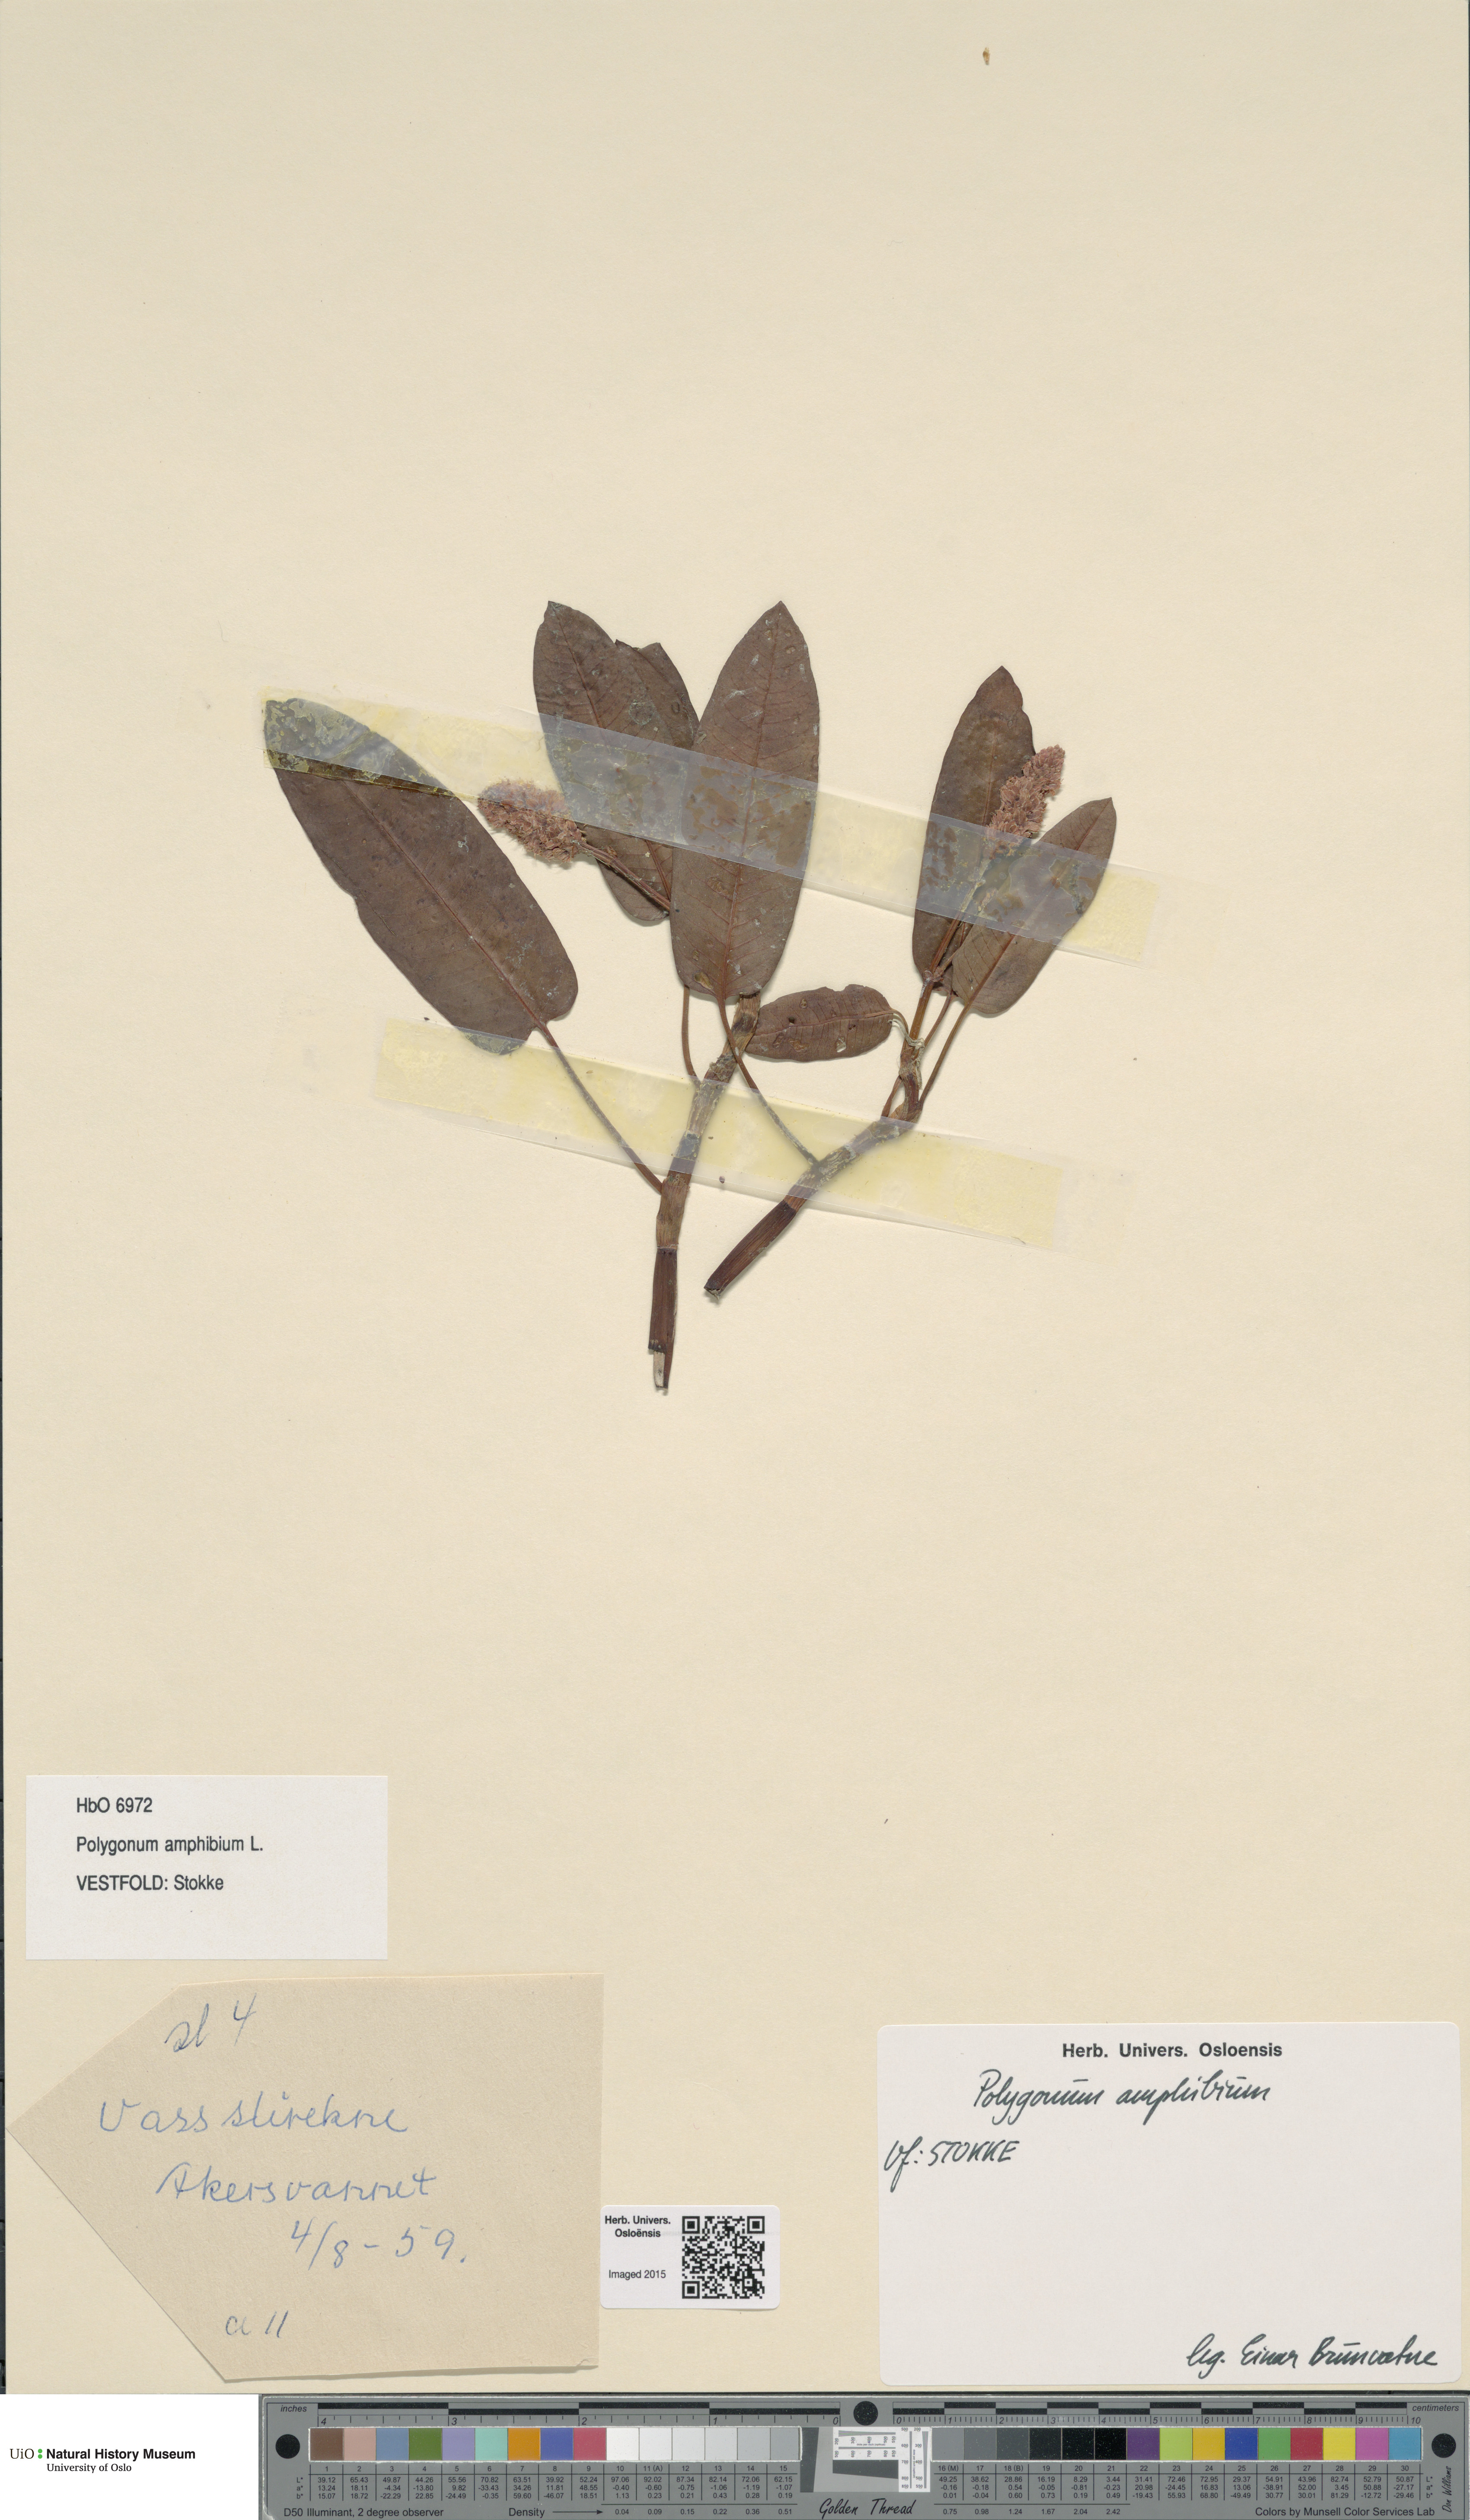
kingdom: Plantae
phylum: Tracheophyta
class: Magnoliopsida
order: Caryophyllales
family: Polygonaceae
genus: Persicaria
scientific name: Persicaria amphibia
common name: Amphibious bistort
